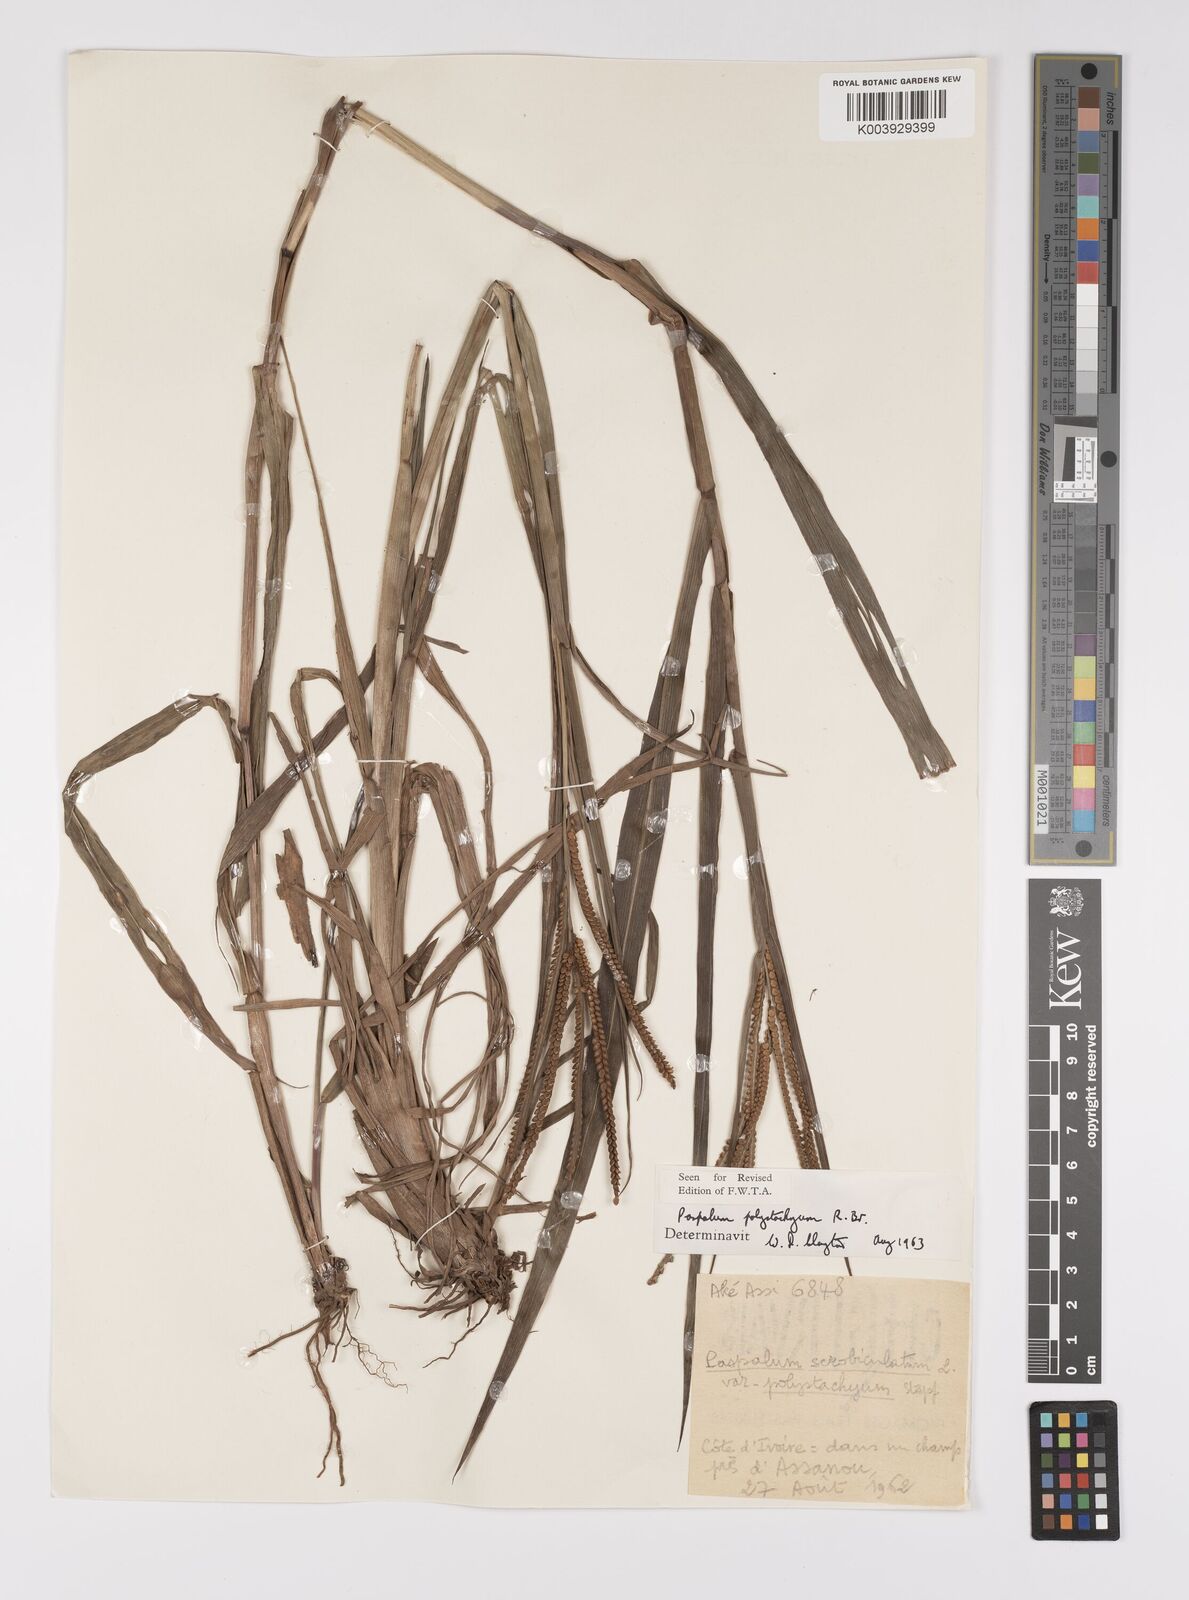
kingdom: Plantae
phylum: Tracheophyta
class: Liliopsida
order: Poales
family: Poaceae
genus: Paspalum
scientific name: Paspalum scrobiculatum
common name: Kodo millet
